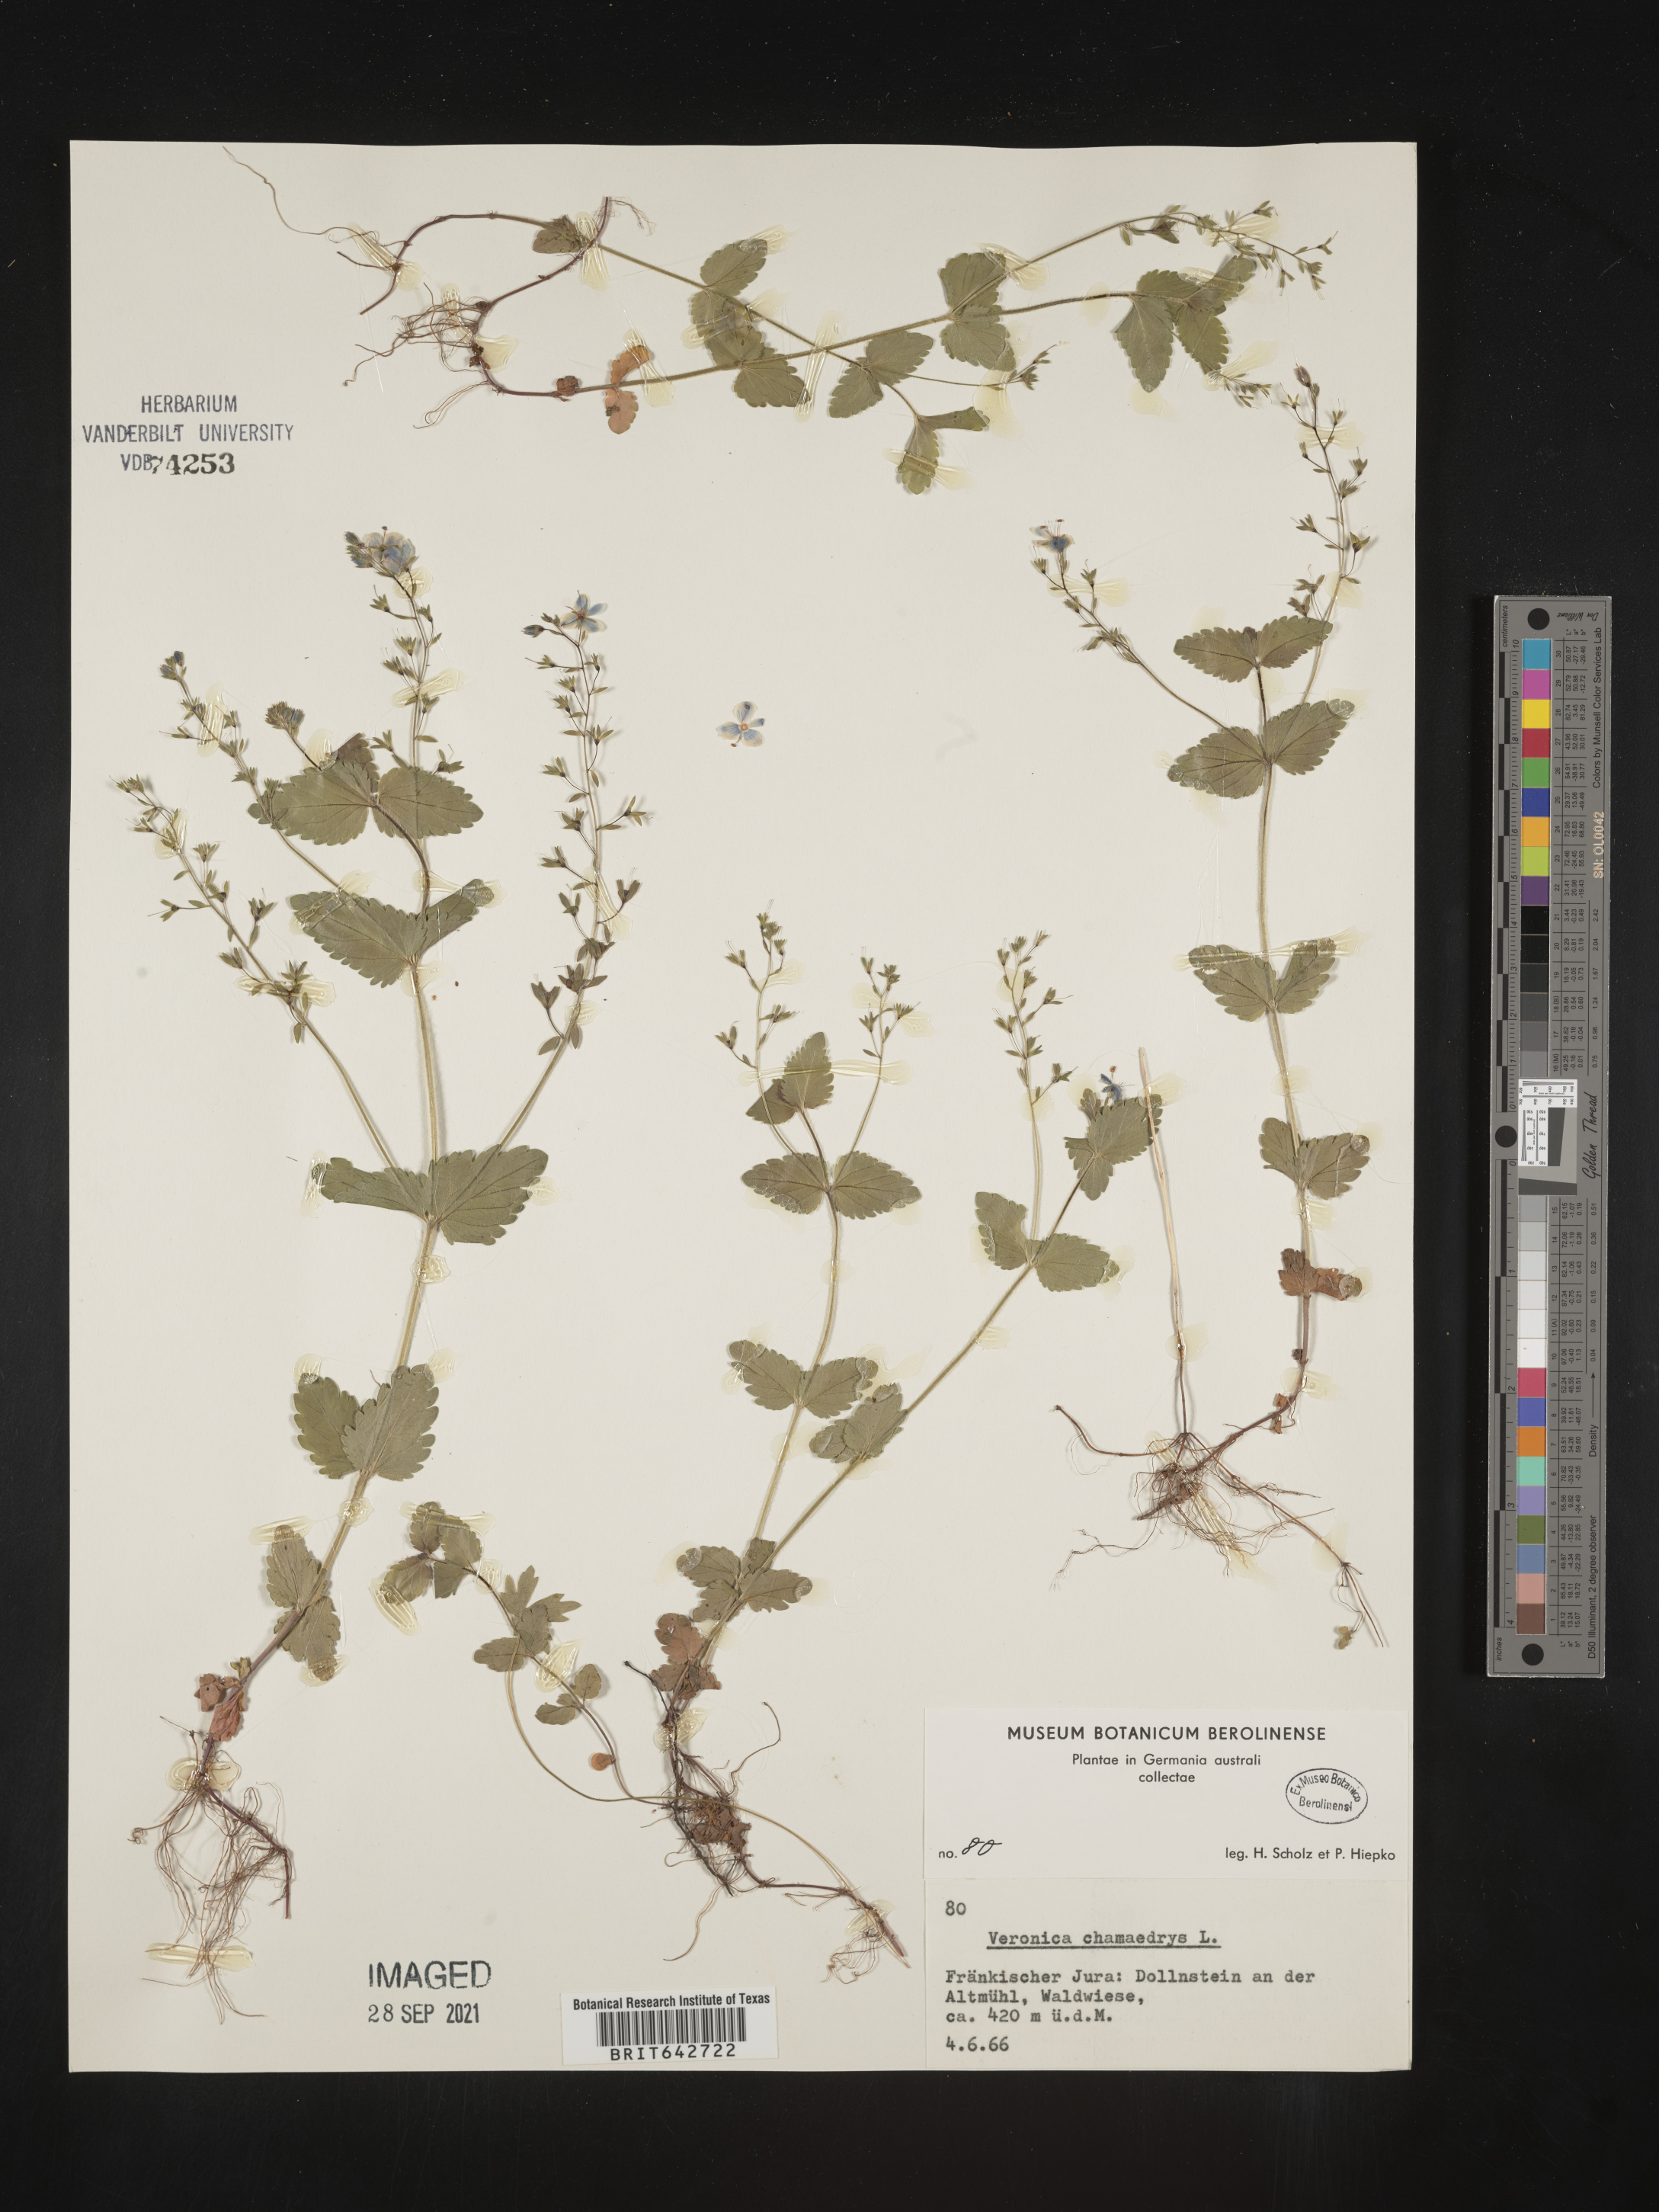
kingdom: Plantae
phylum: Tracheophyta
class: Magnoliopsida
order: Lamiales
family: Plantaginaceae
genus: Veronica
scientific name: Veronica
